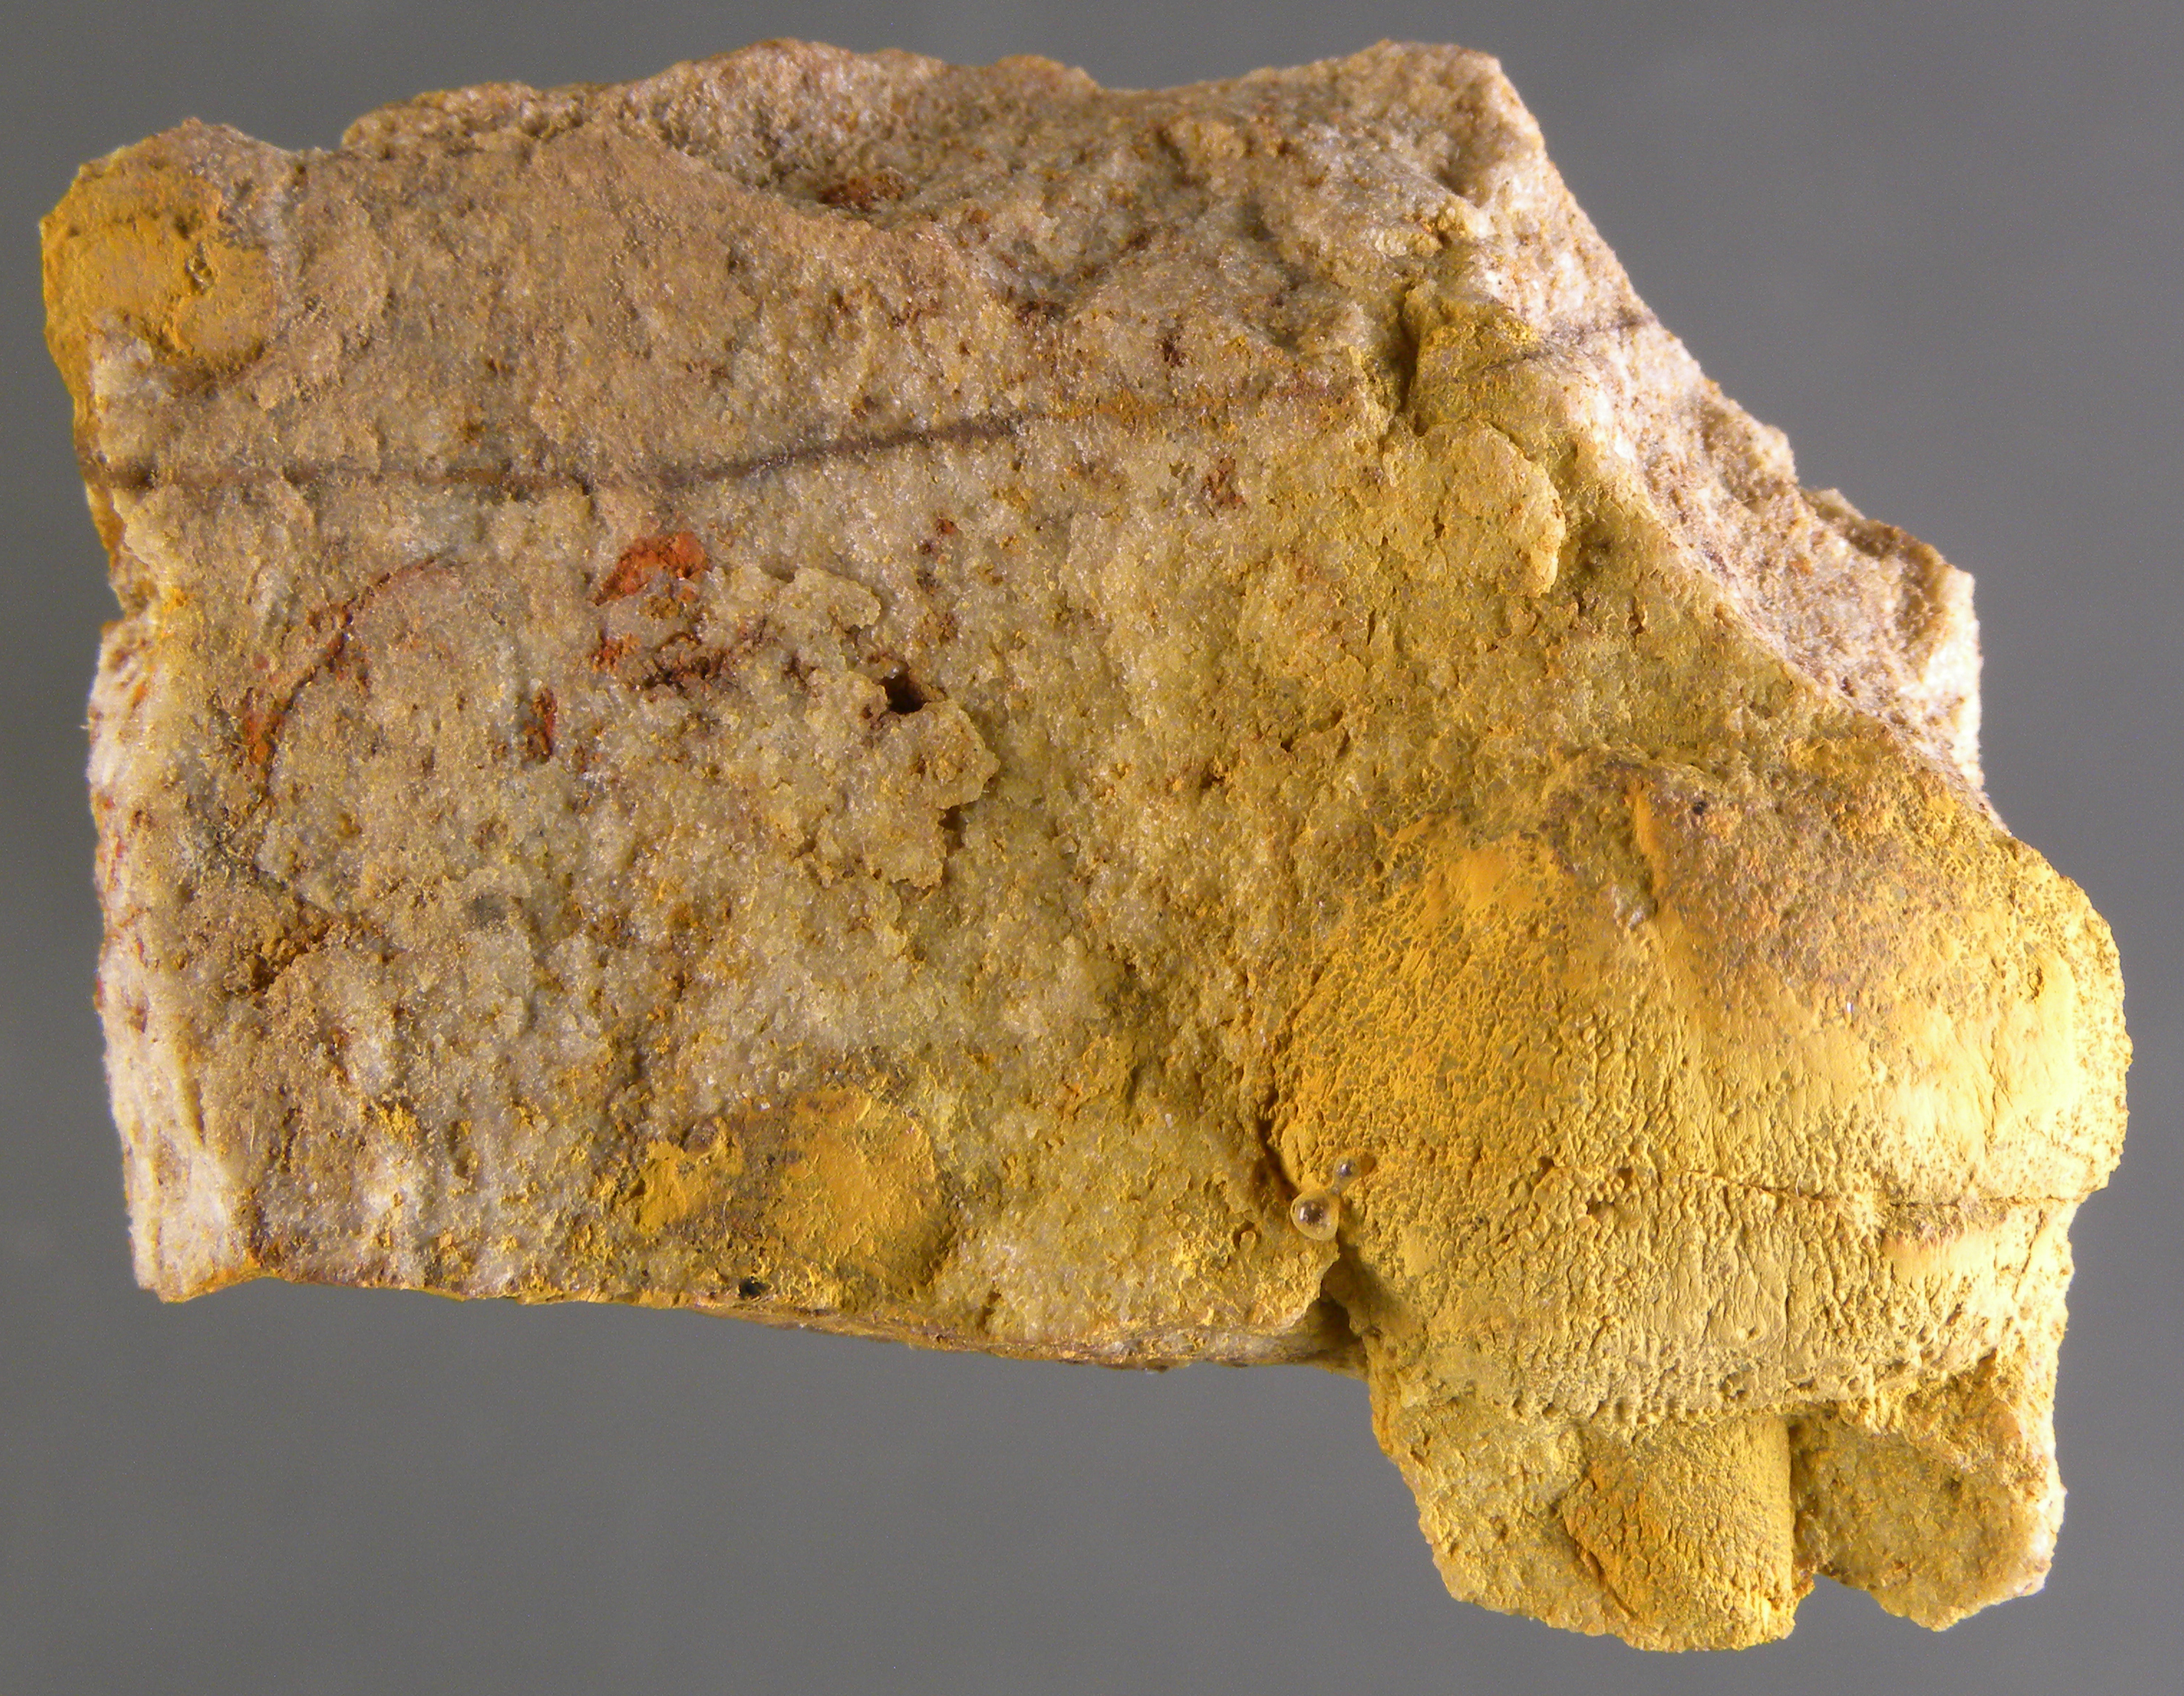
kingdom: Animalia
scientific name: Animalia
